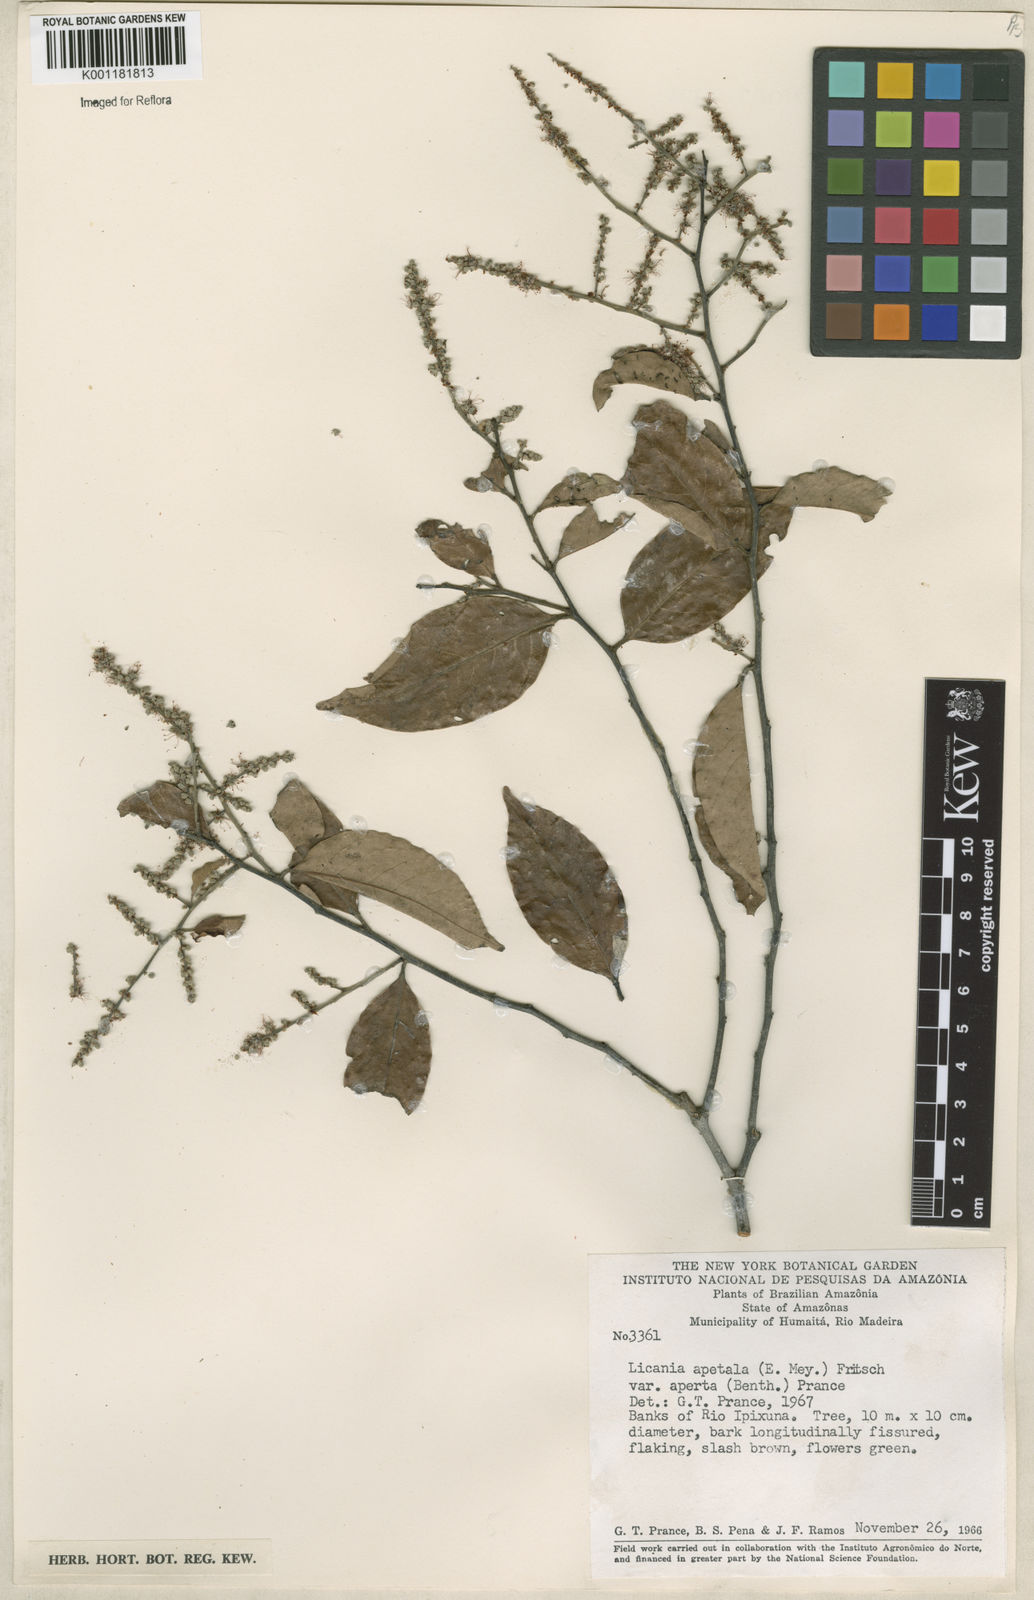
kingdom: Plantae
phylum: Tracheophyta
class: Magnoliopsida
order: Malpighiales
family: Chrysobalanaceae
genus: Leptobalanus
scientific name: Leptobalanus apetalus
